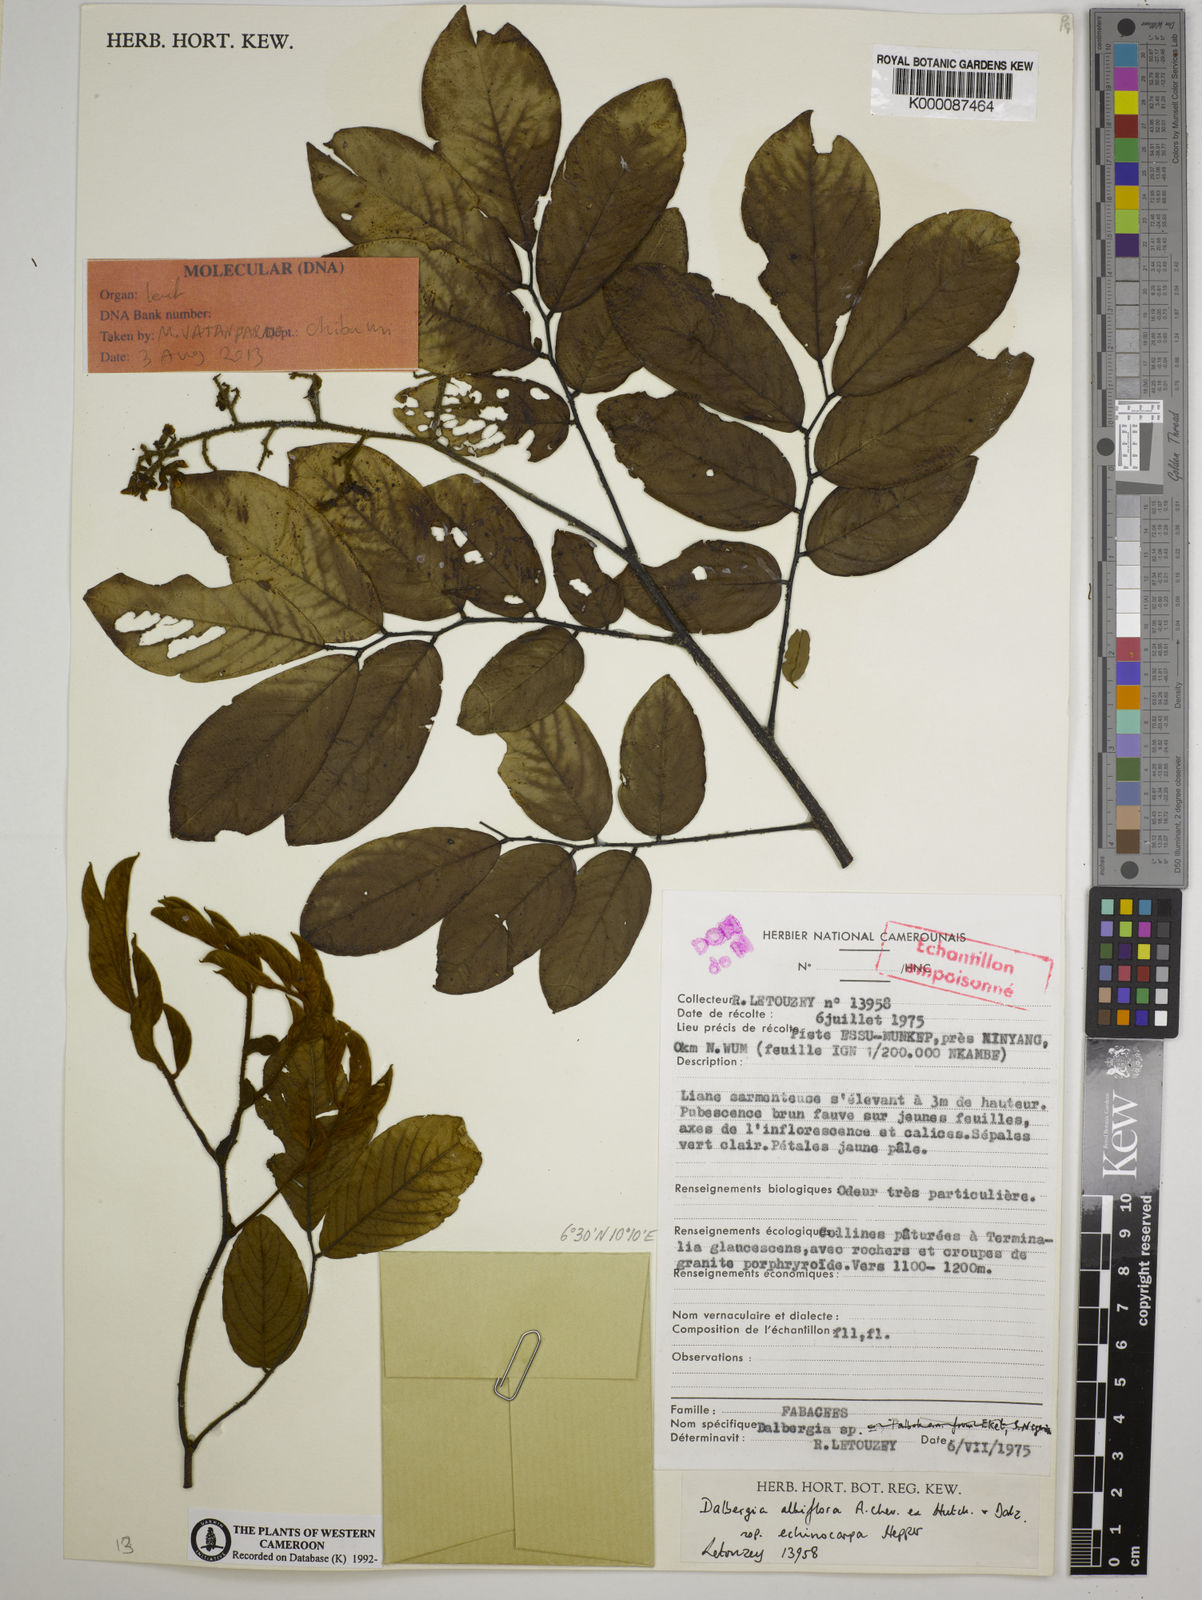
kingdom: Plantae
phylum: Tracheophyta
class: Magnoliopsida
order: Fabales
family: Fabaceae
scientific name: Fabaceae
